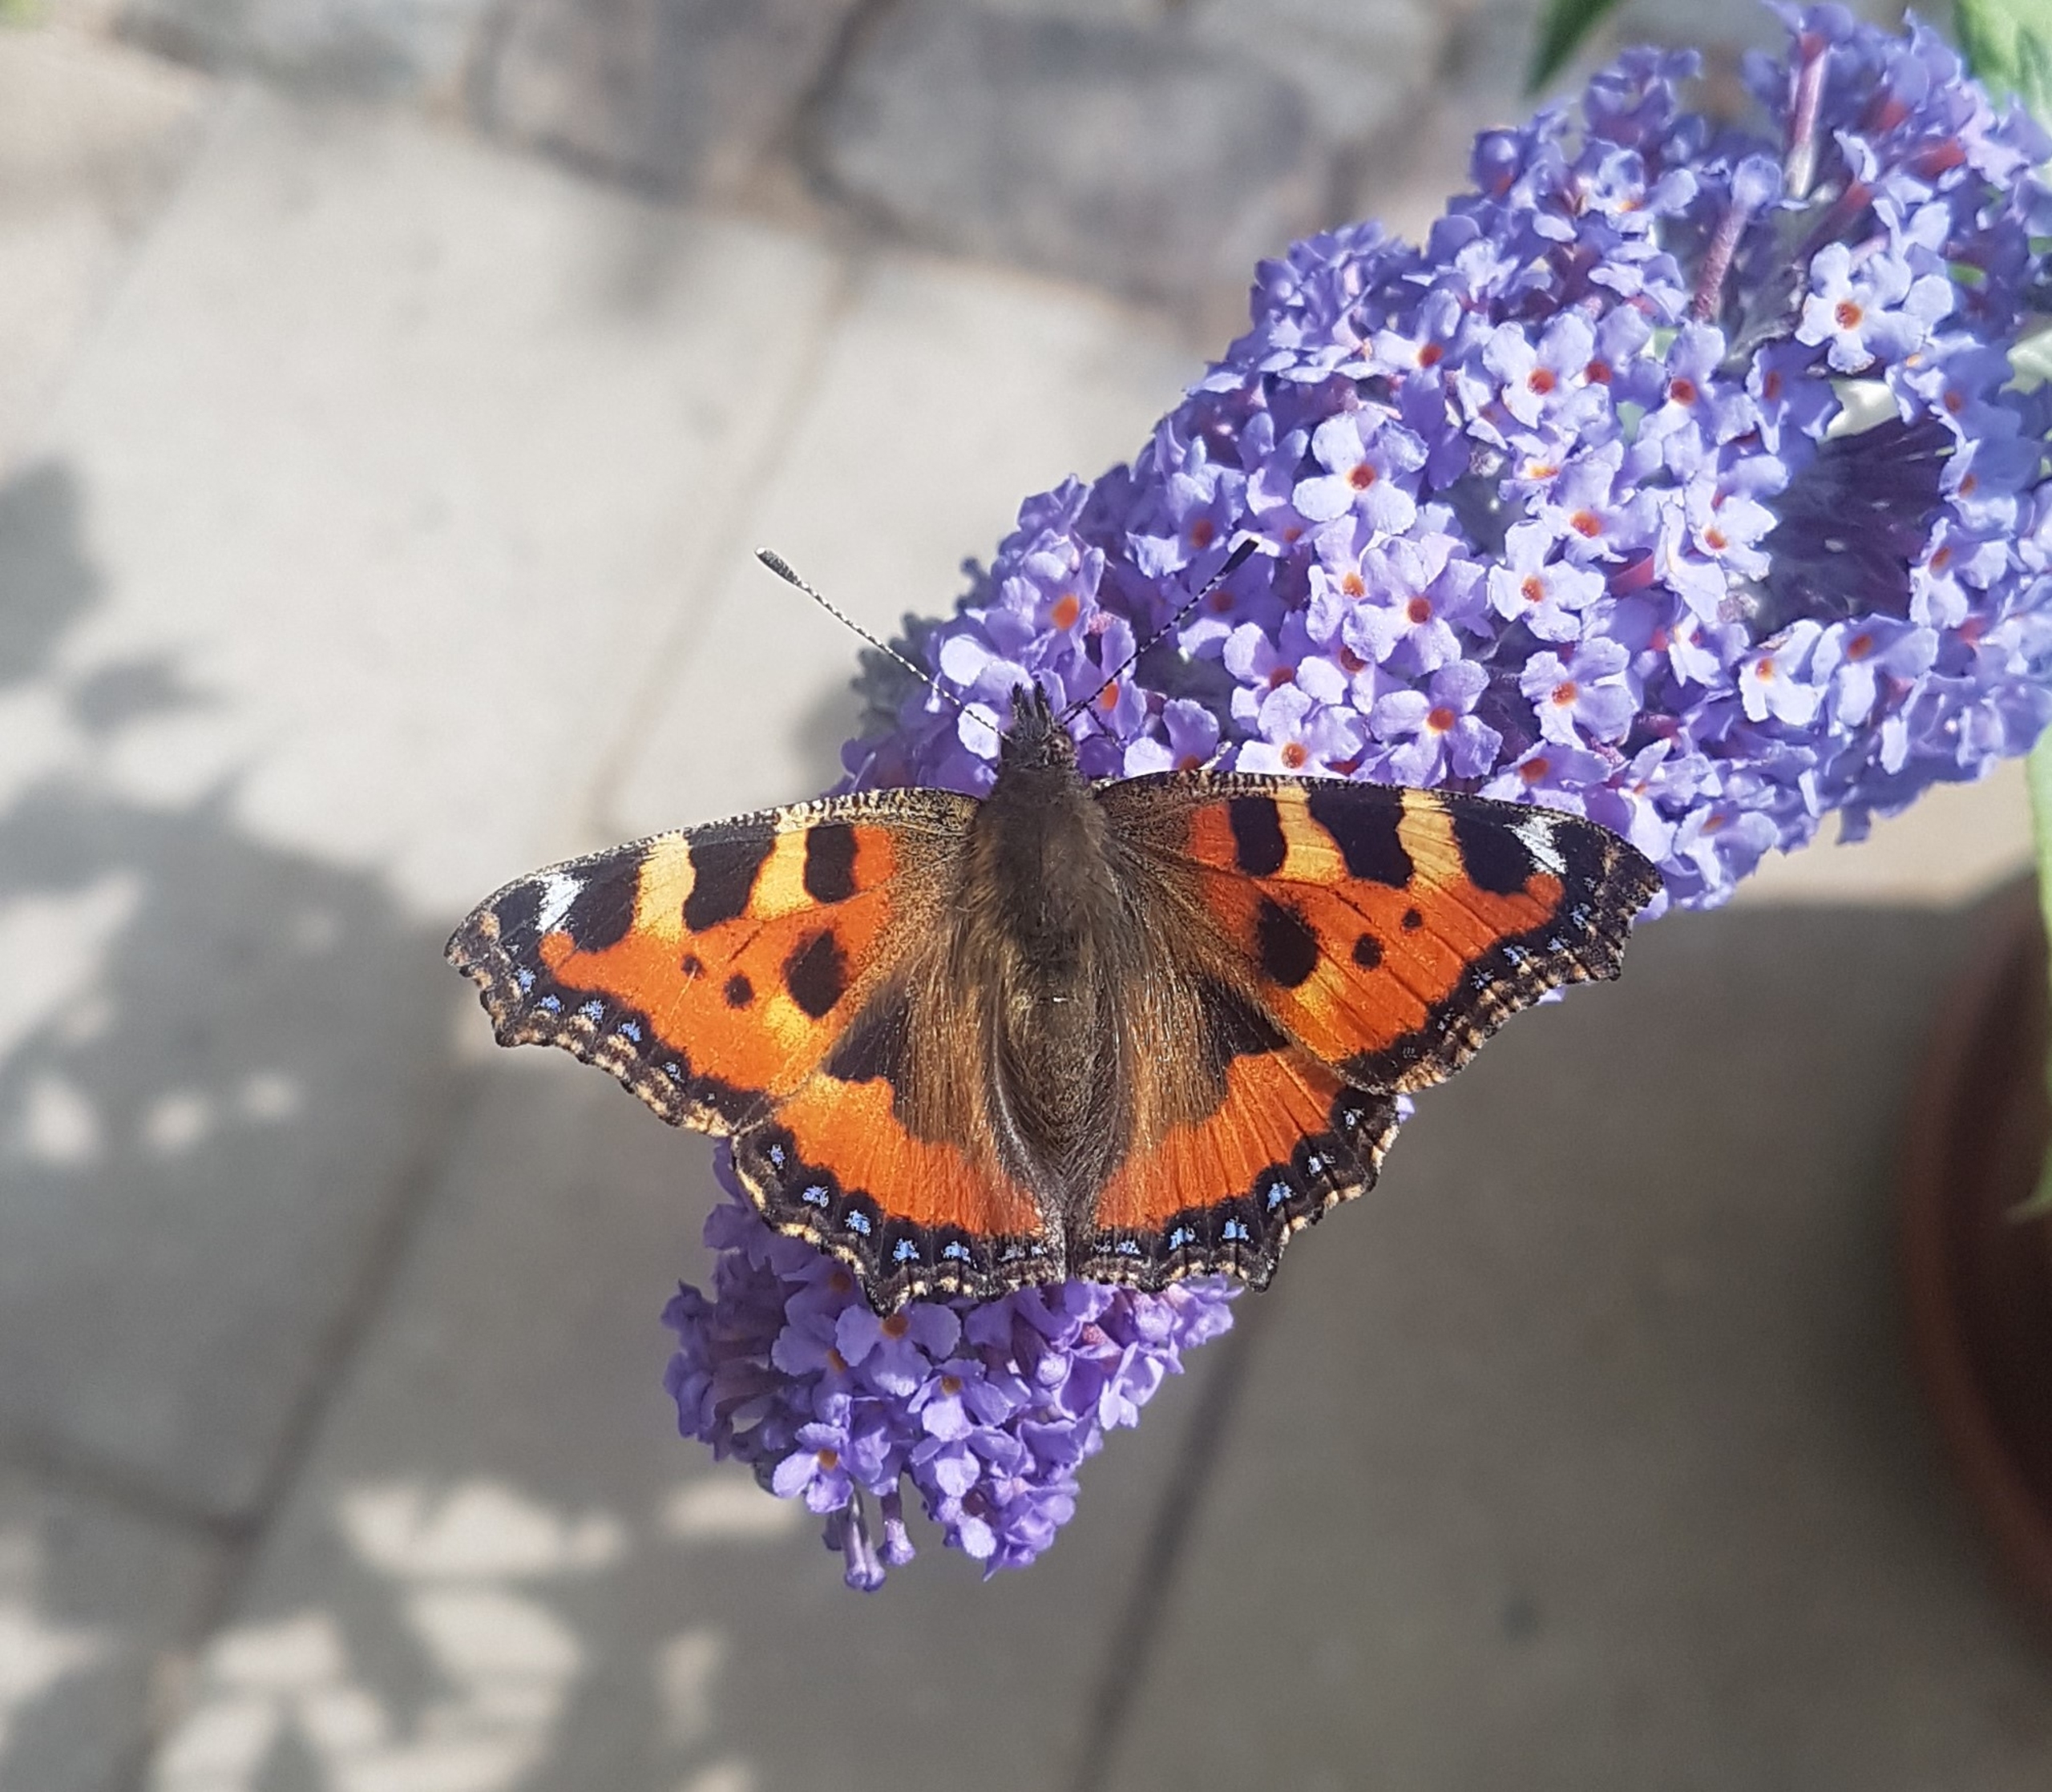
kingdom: Animalia
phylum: Arthropoda
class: Insecta
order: Lepidoptera
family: Nymphalidae
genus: Aglais
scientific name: Aglais urticae
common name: Nældens takvinge
